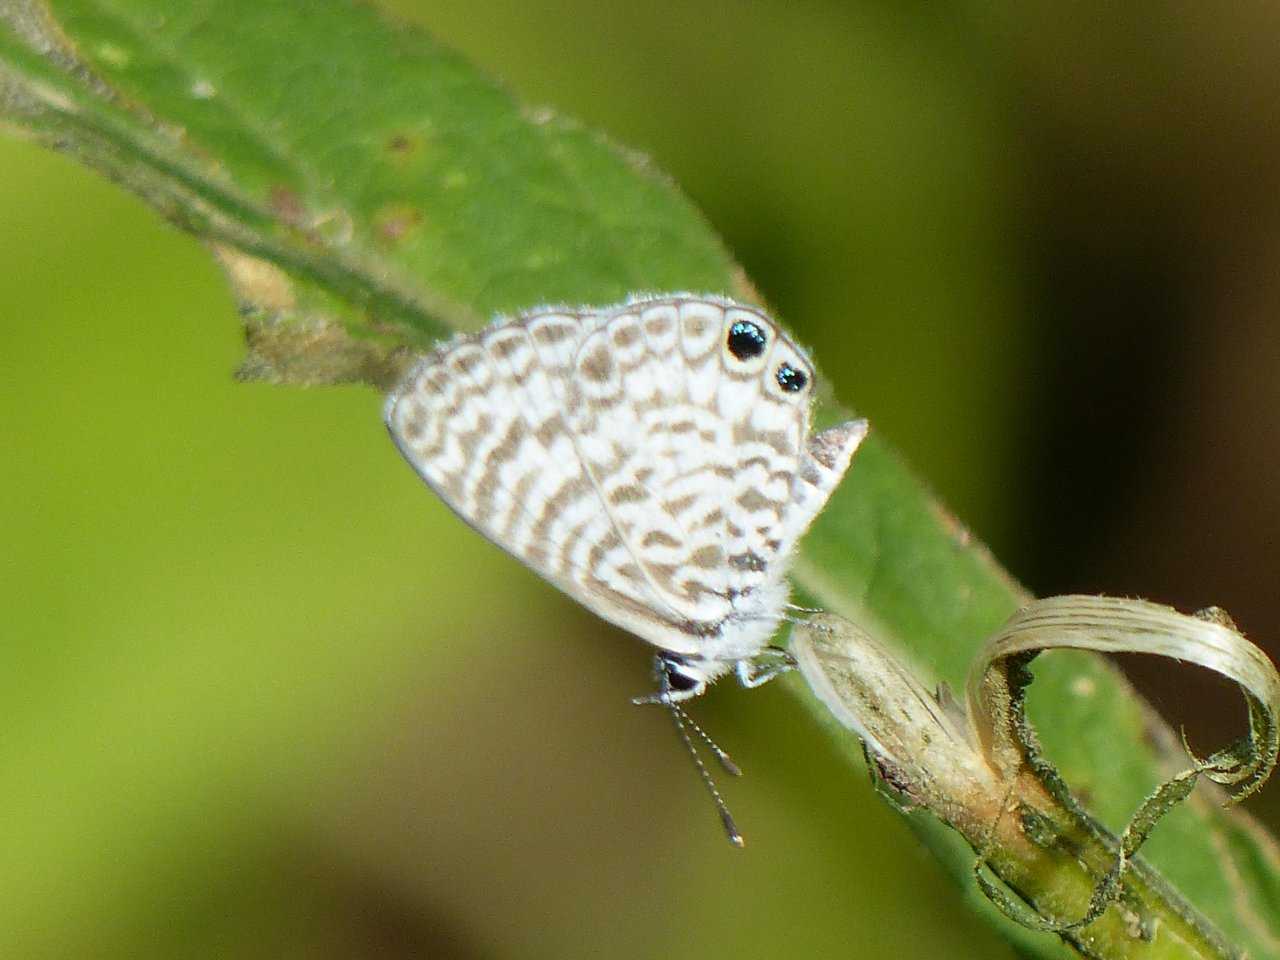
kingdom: Animalia
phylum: Arthropoda
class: Insecta
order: Lepidoptera
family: Lycaenidae
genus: Leptotes
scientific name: Leptotes cassius
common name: Cassius Blue
